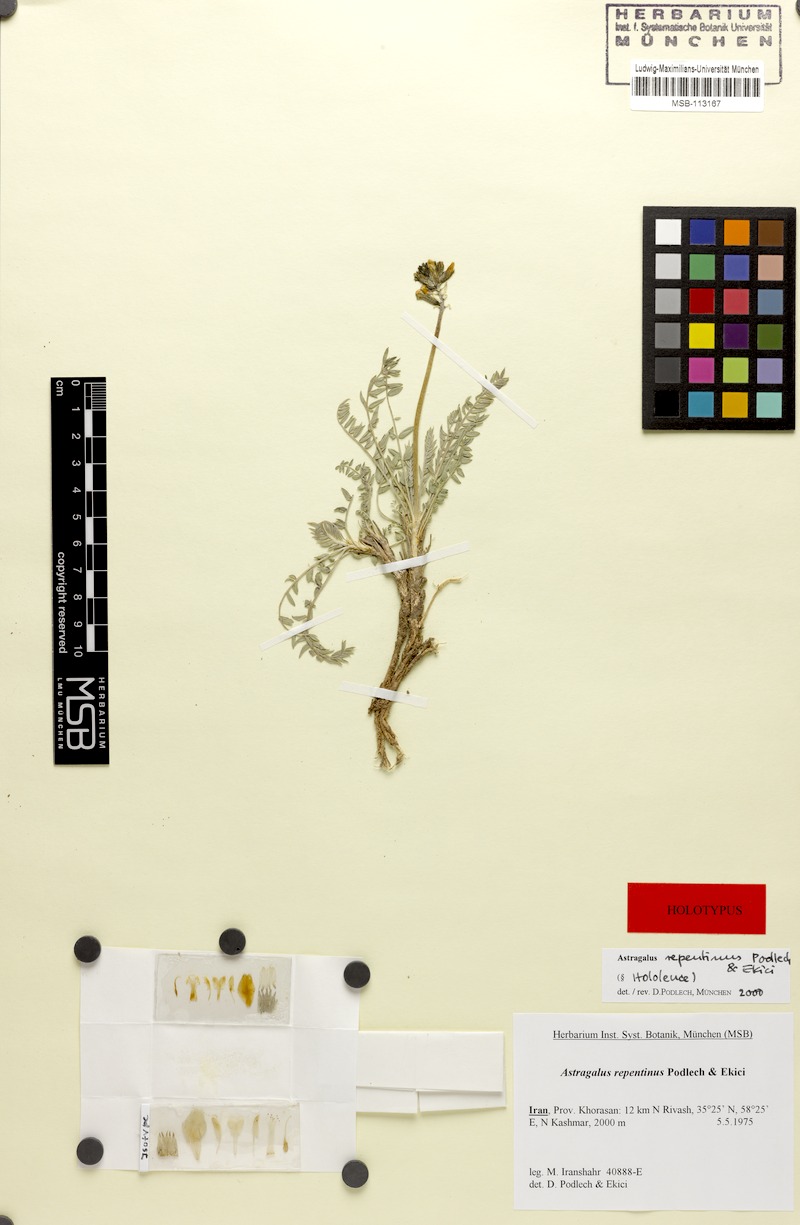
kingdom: Plantae
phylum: Tracheophyta
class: Magnoliopsida
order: Fabales
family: Fabaceae
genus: Astragalus
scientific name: Astragalus repentinus
